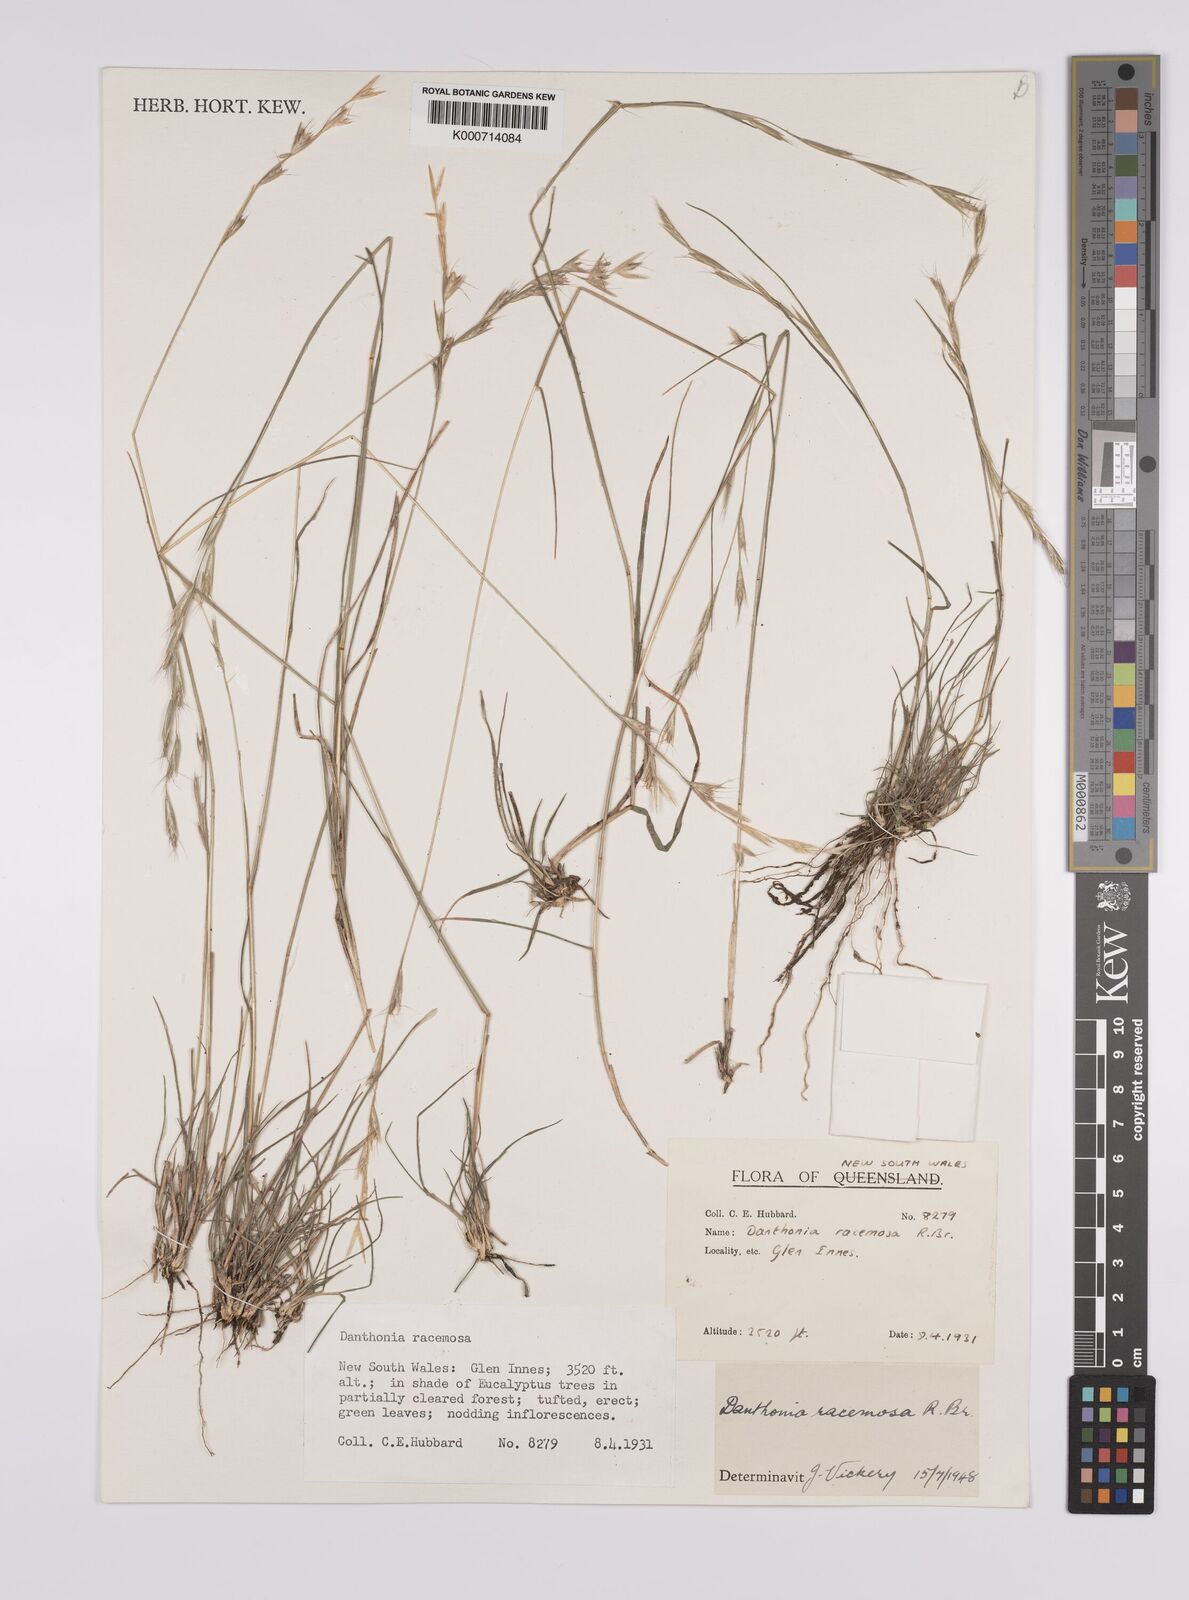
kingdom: Plantae
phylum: Tracheophyta
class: Liliopsida
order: Poales
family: Poaceae
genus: Rytidosperma
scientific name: Rytidosperma racemosum
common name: Wallaby-grass
